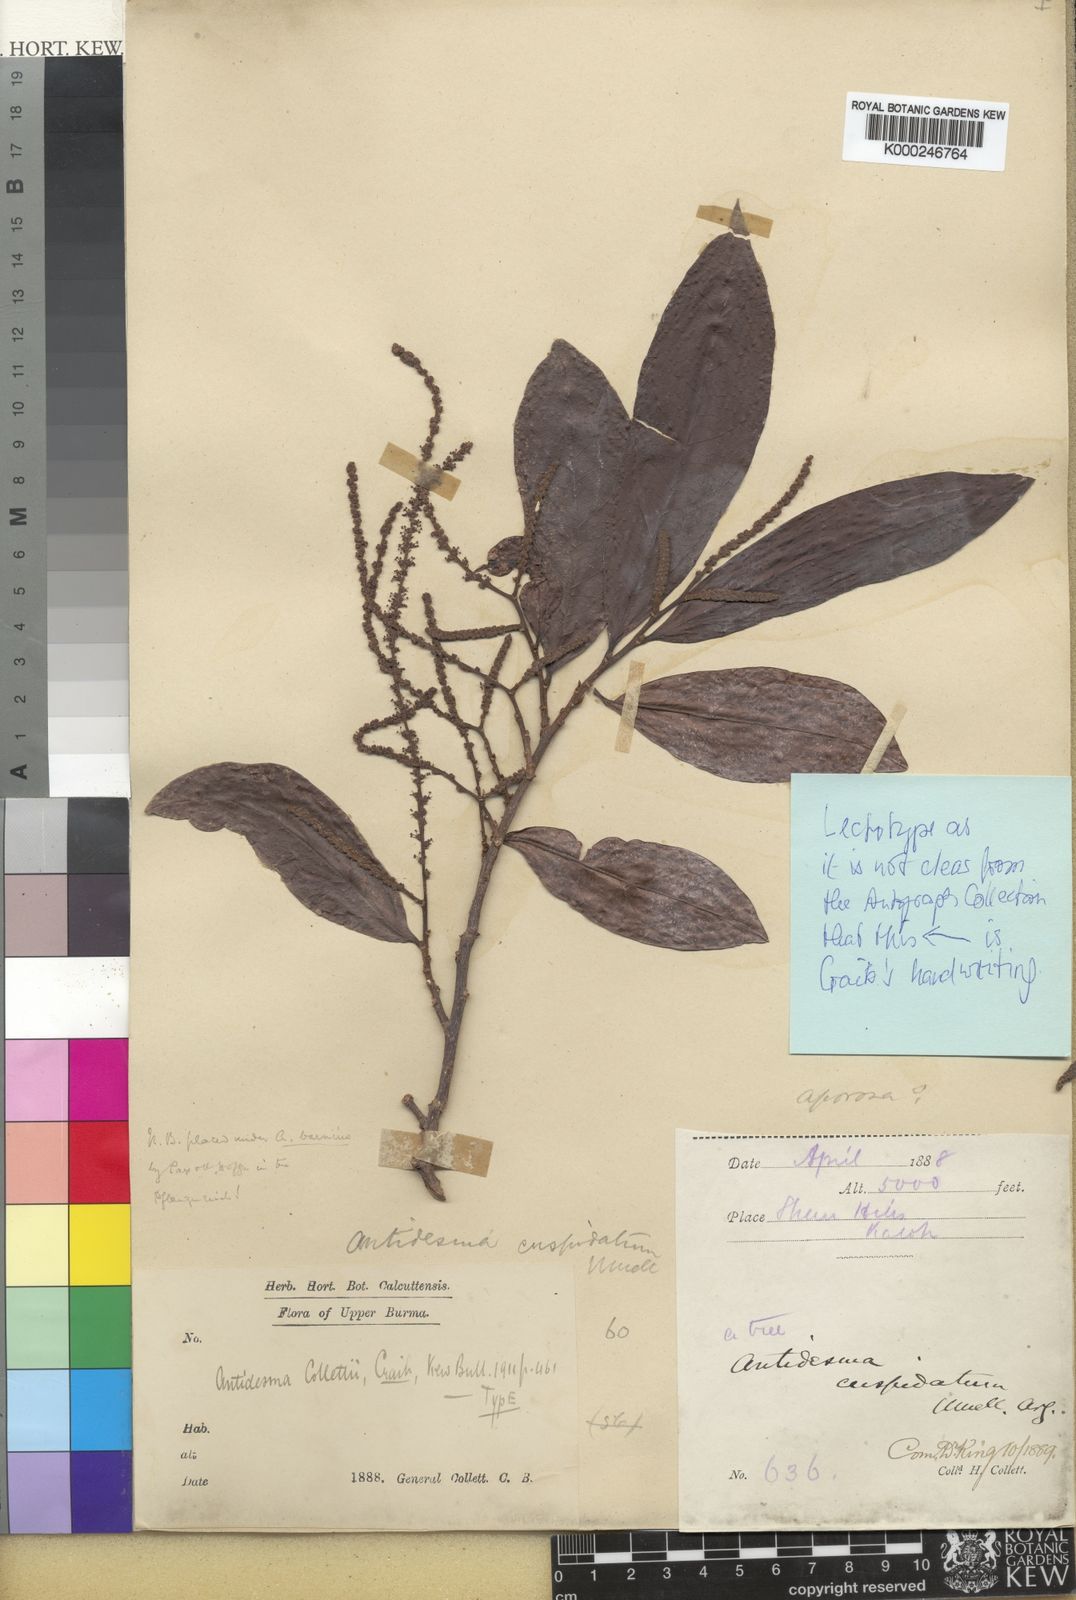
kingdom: Plantae
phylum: Tracheophyta
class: Magnoliopsida
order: Malpighiales
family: Phyllanthaceae
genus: Antidesma
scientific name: Antidesma bunius
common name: Chinese-laurel
